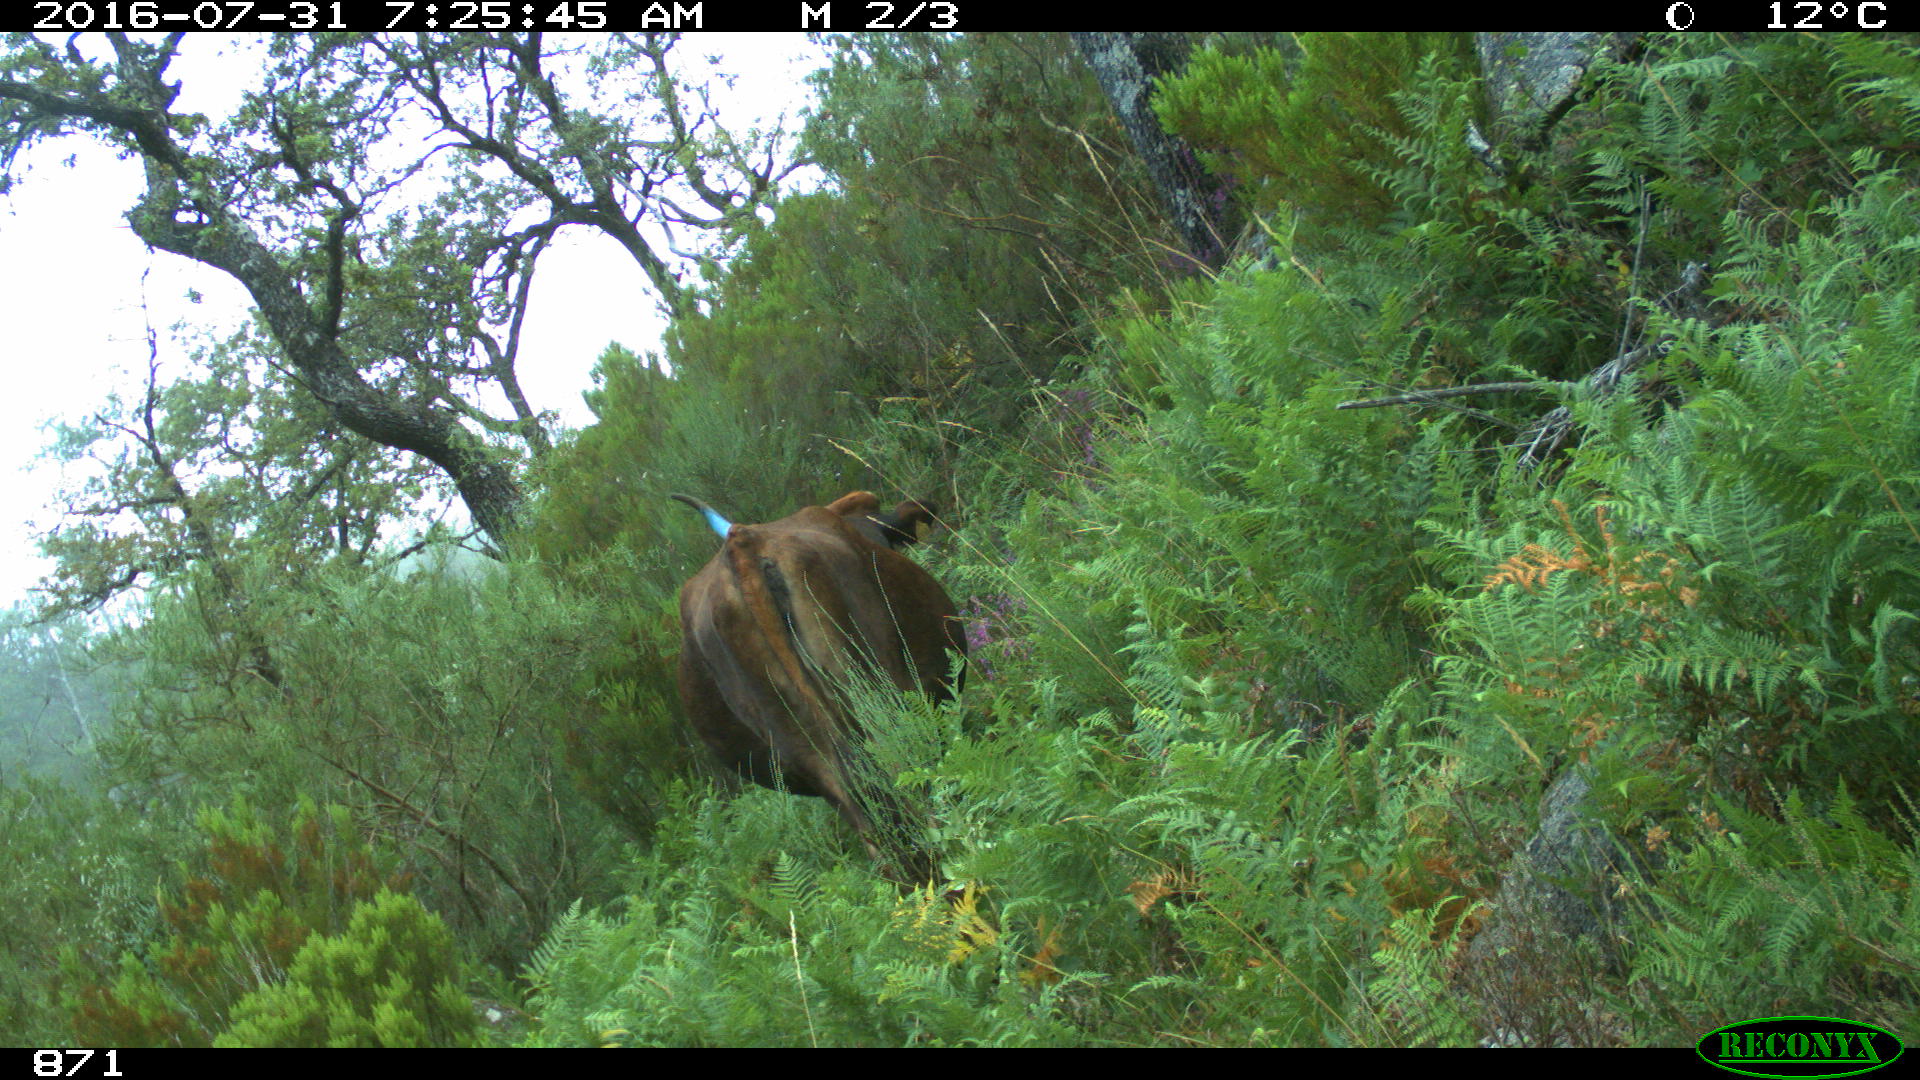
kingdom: Animalia
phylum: Chordata
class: Mammalia
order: Artiodactyla
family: Bovidae
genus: Bos
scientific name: Bos taurus
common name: Domesticated cattle
